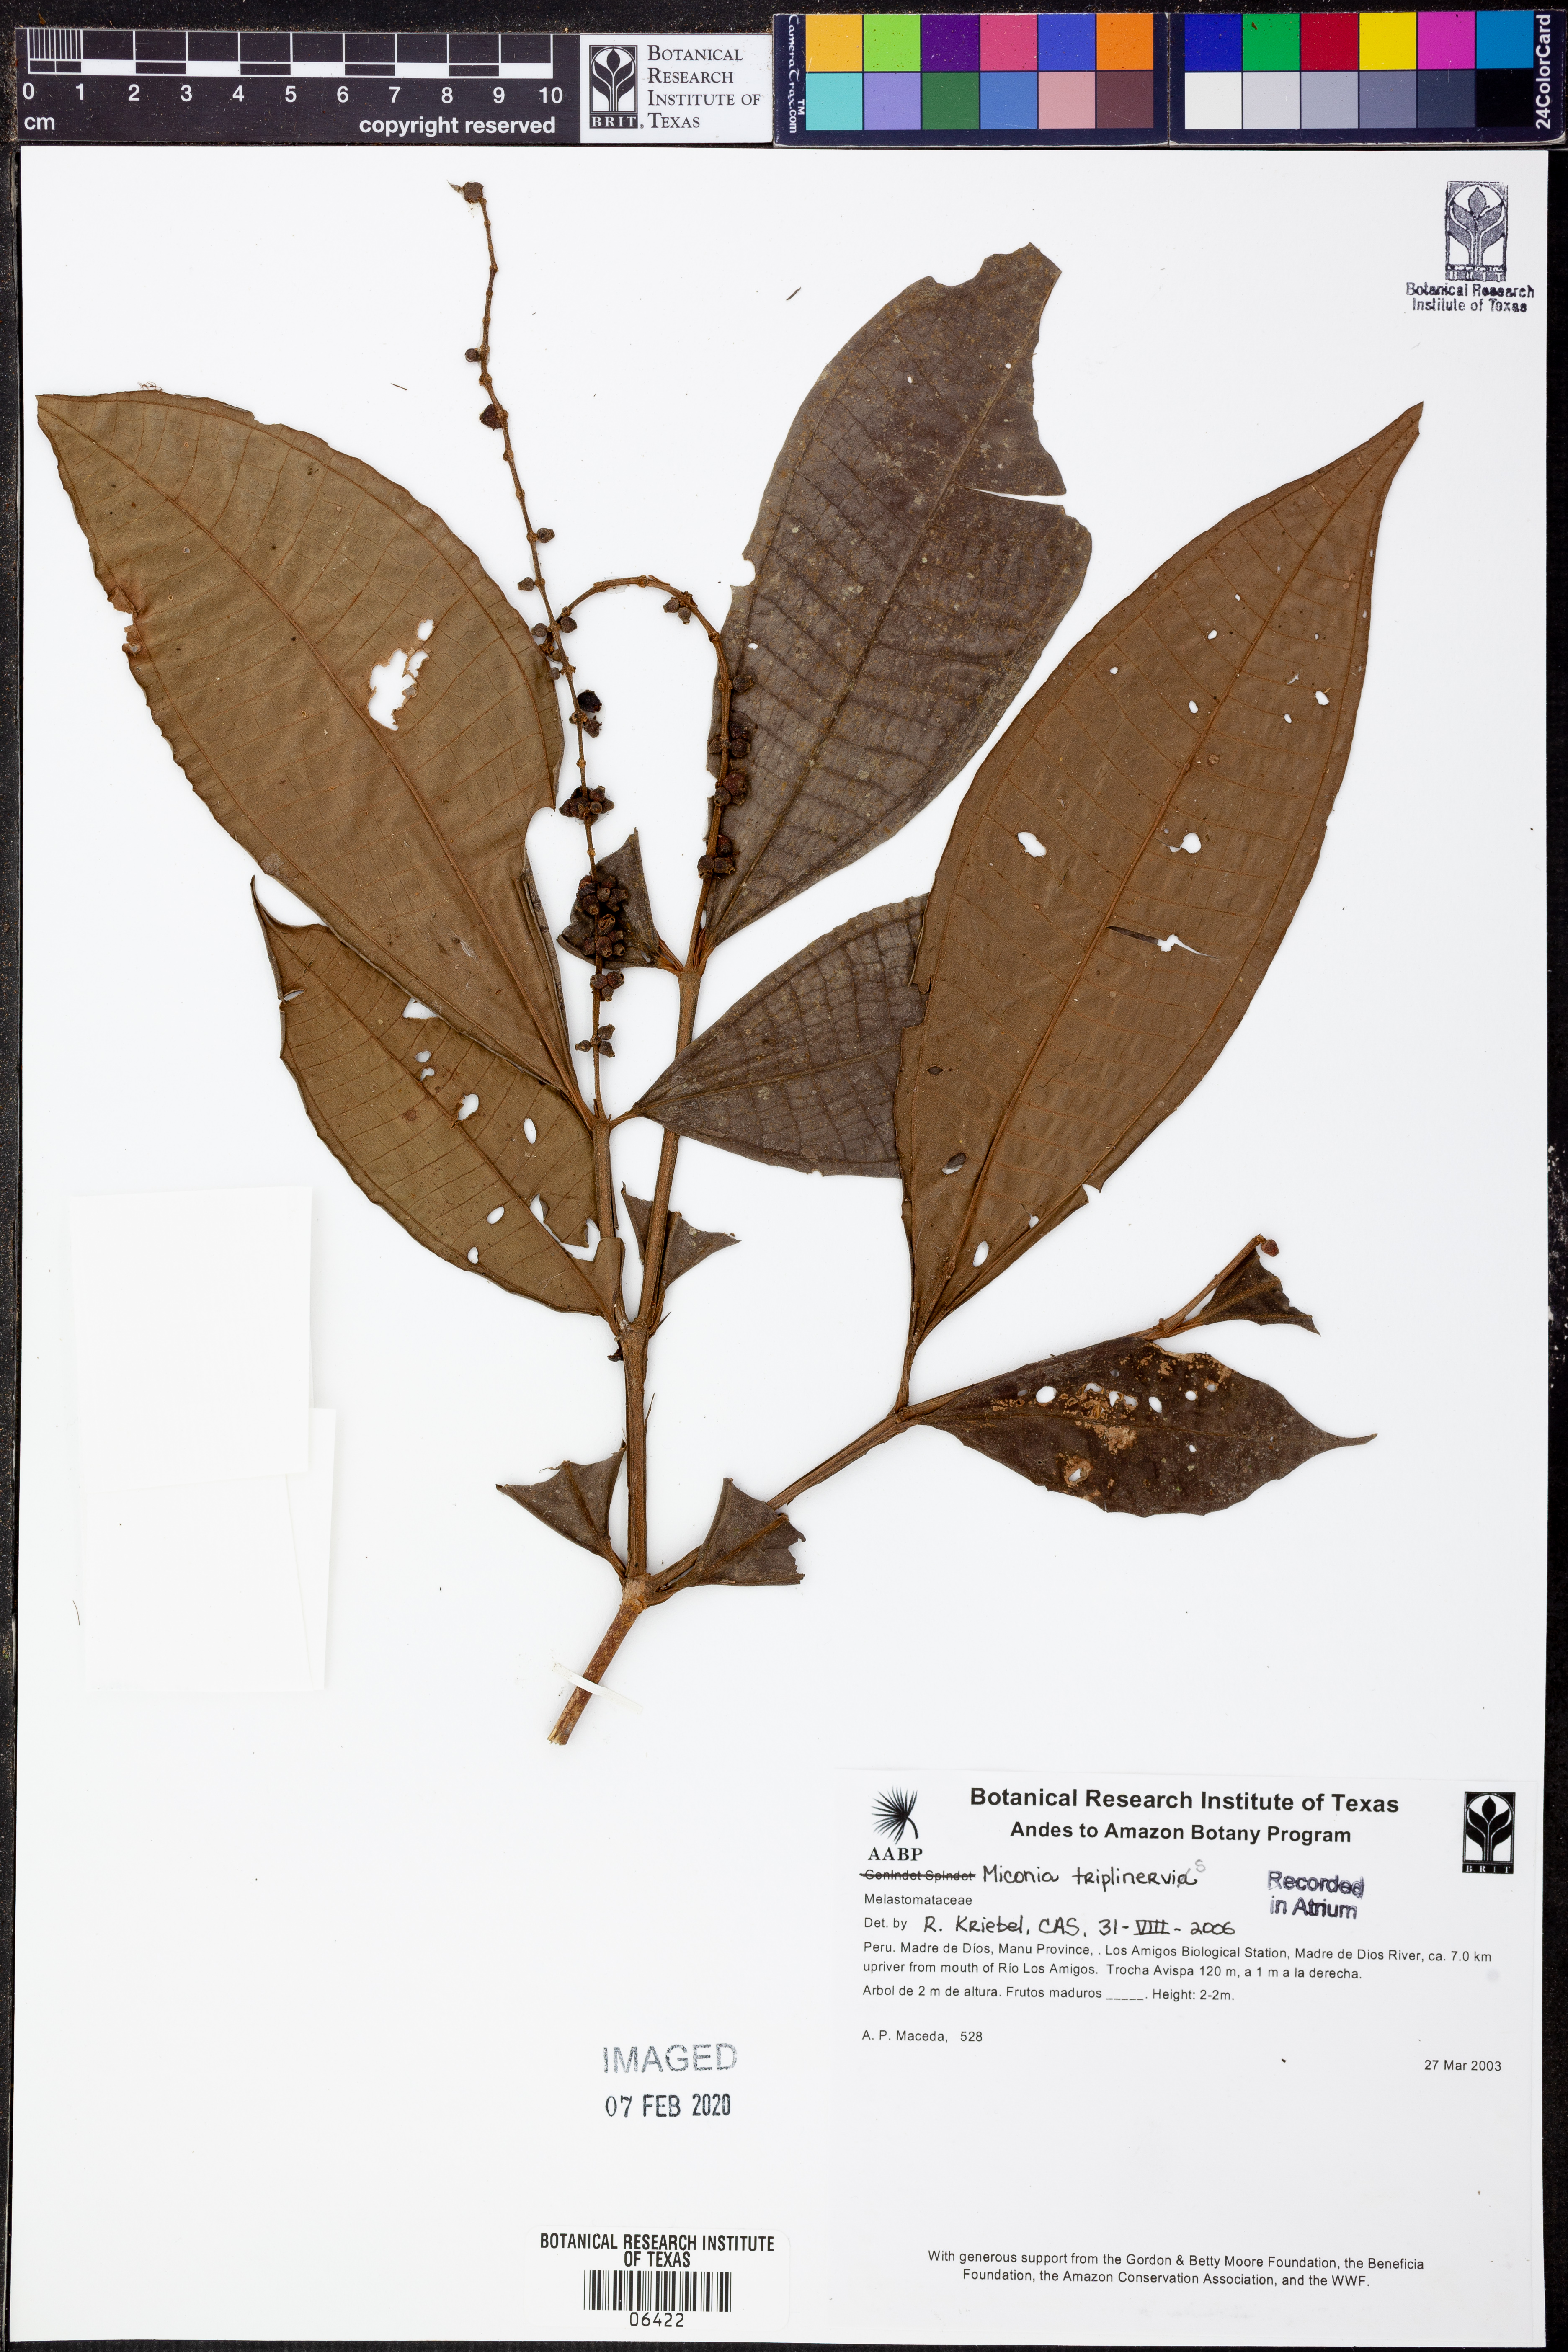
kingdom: Plantae
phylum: Tracheophyta
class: Magnoliopsida
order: Myrtales
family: Melastomataceae
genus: Miconia
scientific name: Miconia triplinervis
